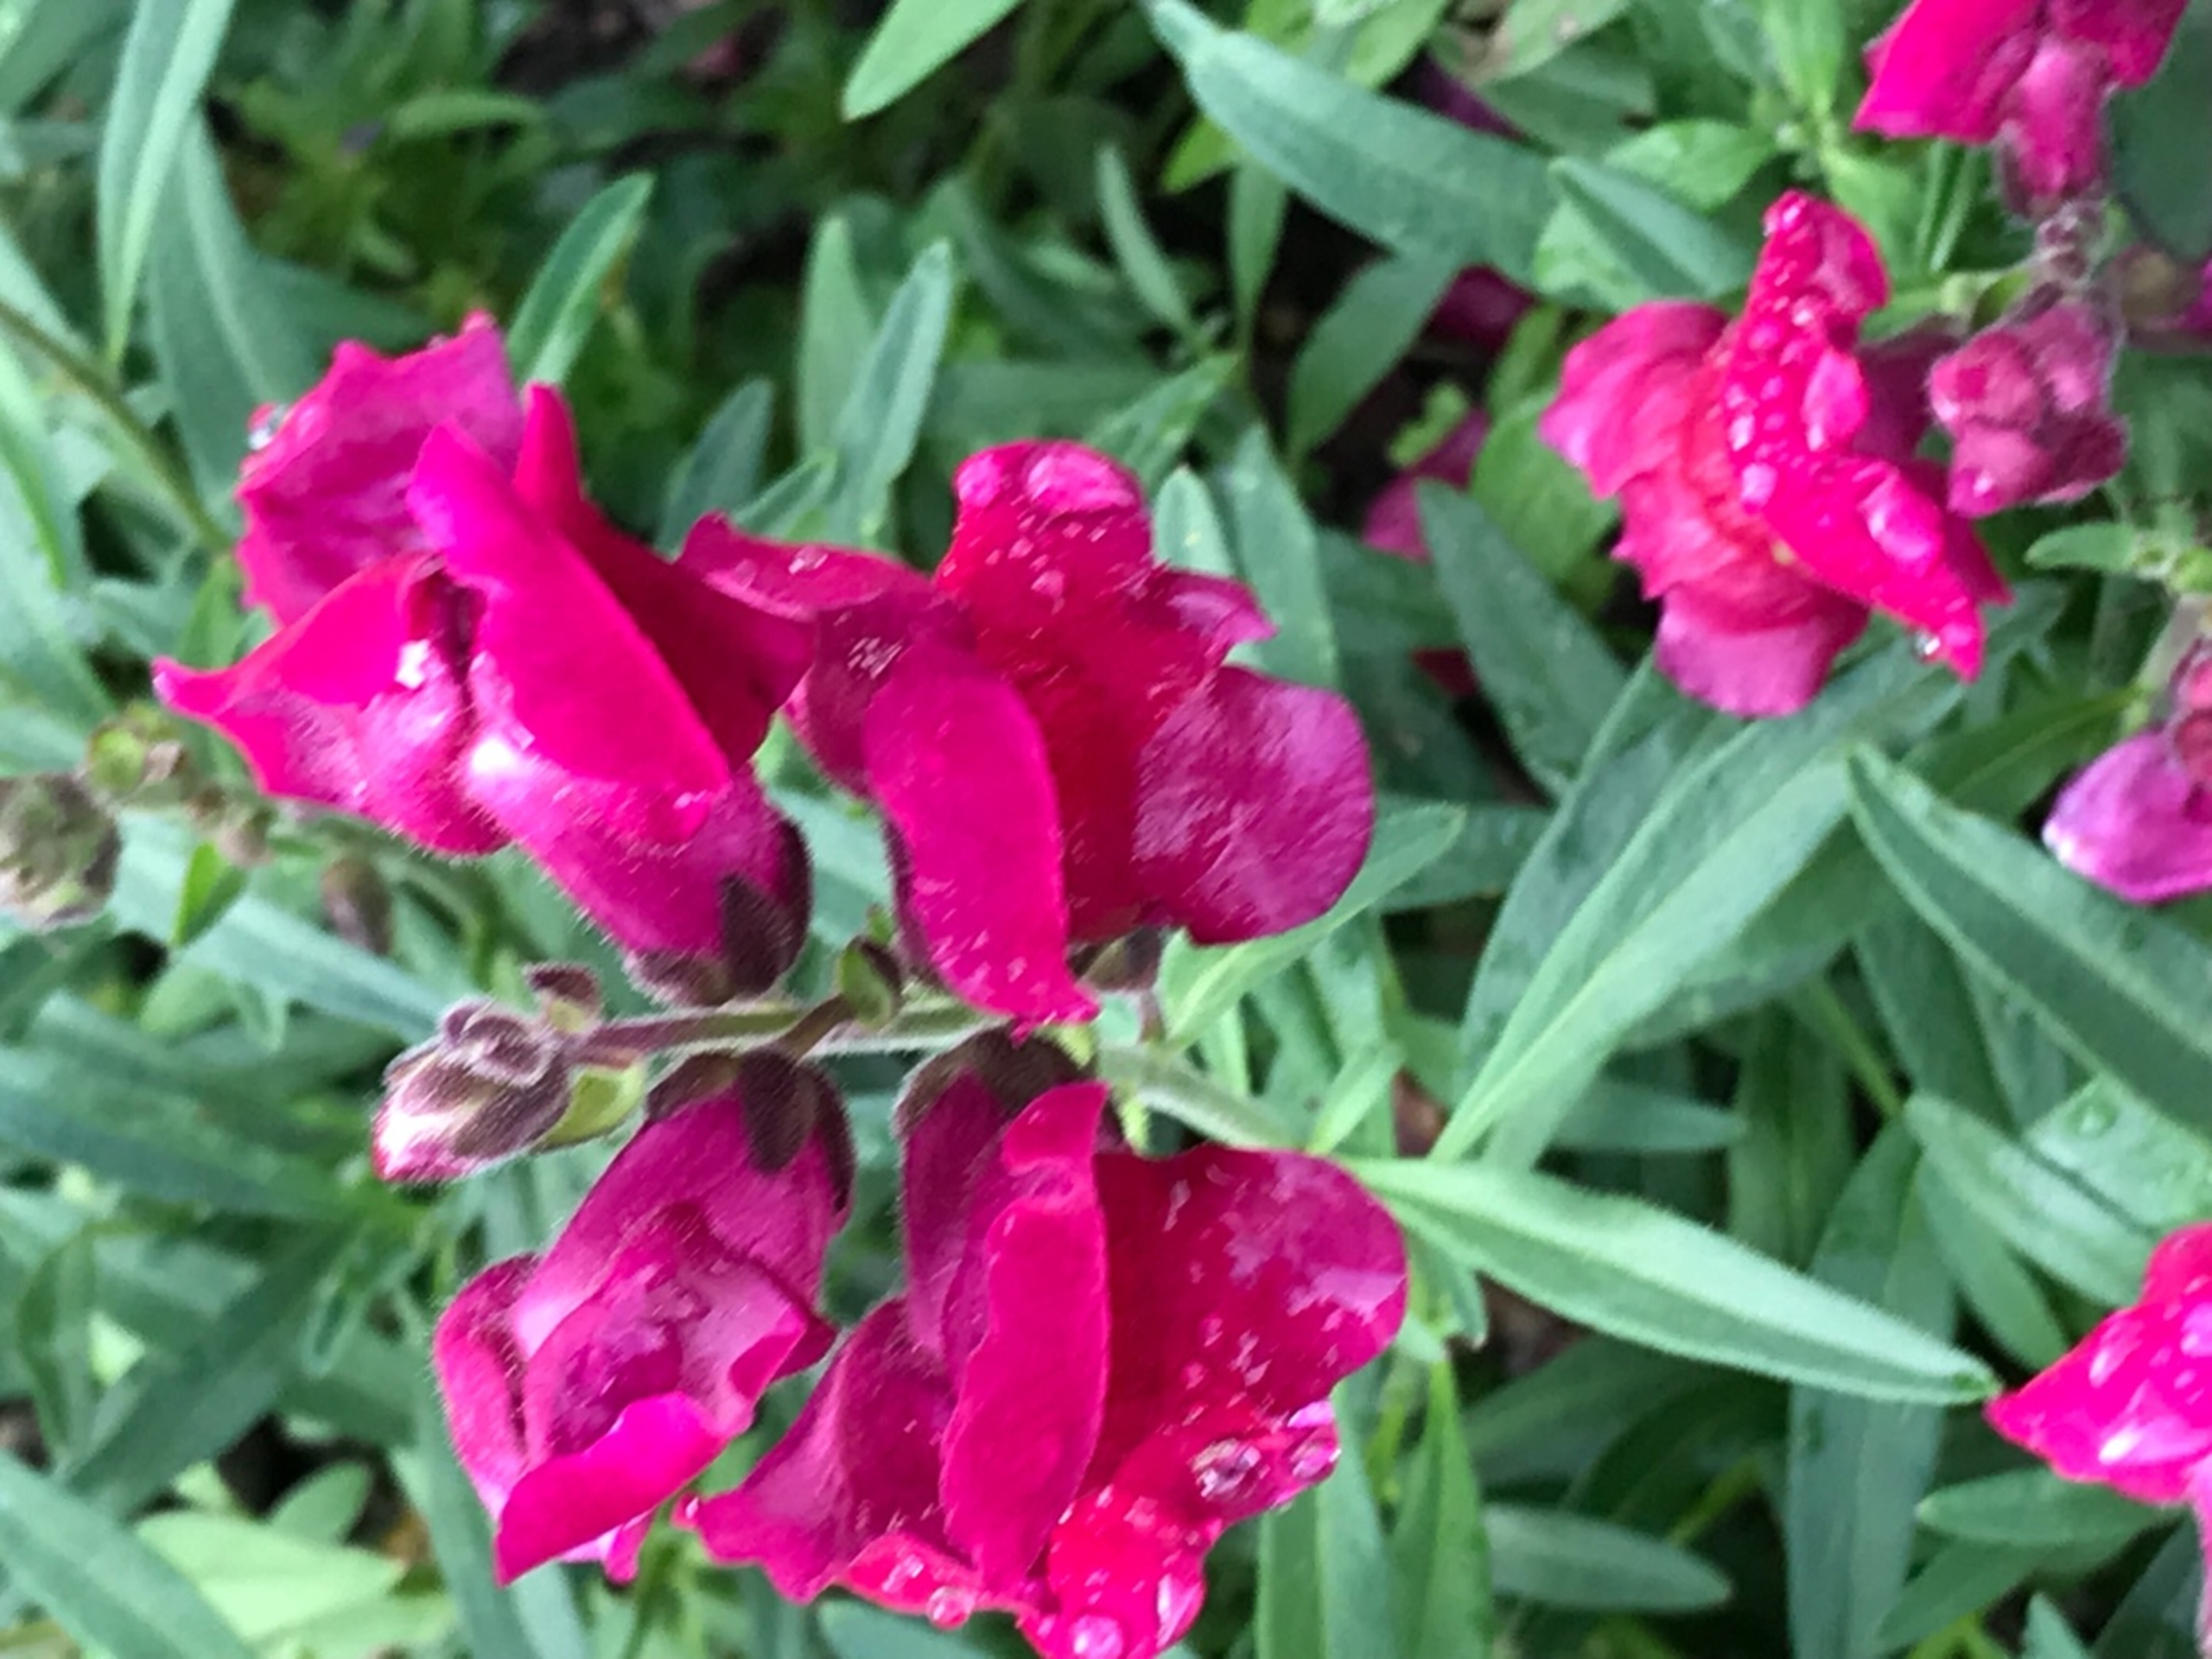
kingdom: Plantae
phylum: Tracheophyta
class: Magnoliopsida
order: Lamiales
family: Plantaginaceae
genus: Antirrhinum
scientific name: Antirrhinum majus
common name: Have-løvemund
